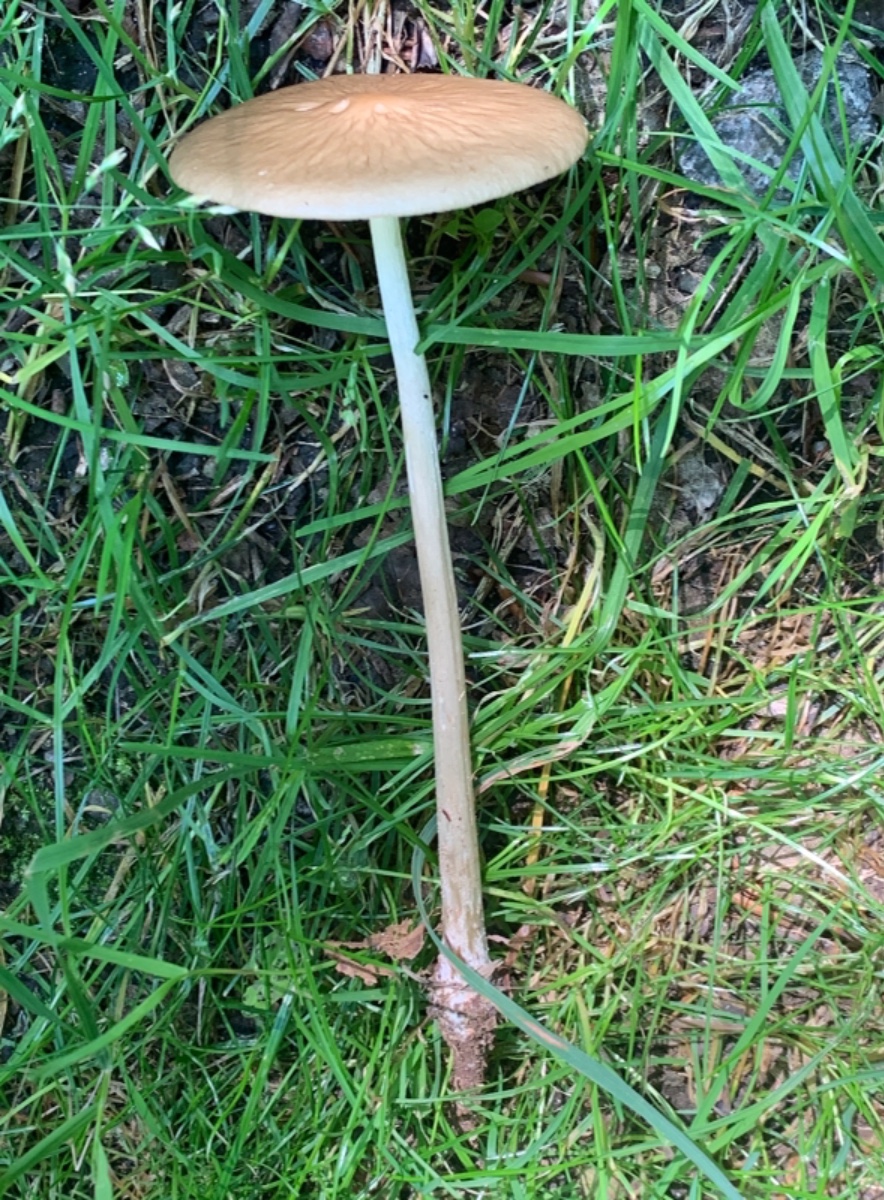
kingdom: Fungi
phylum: Basidiomycota
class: Agaricomycetes
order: Agaricales
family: Physalacriaceae
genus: Hymenopellis
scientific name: Hymenopellis radicata
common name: almindelig pælerodshat
